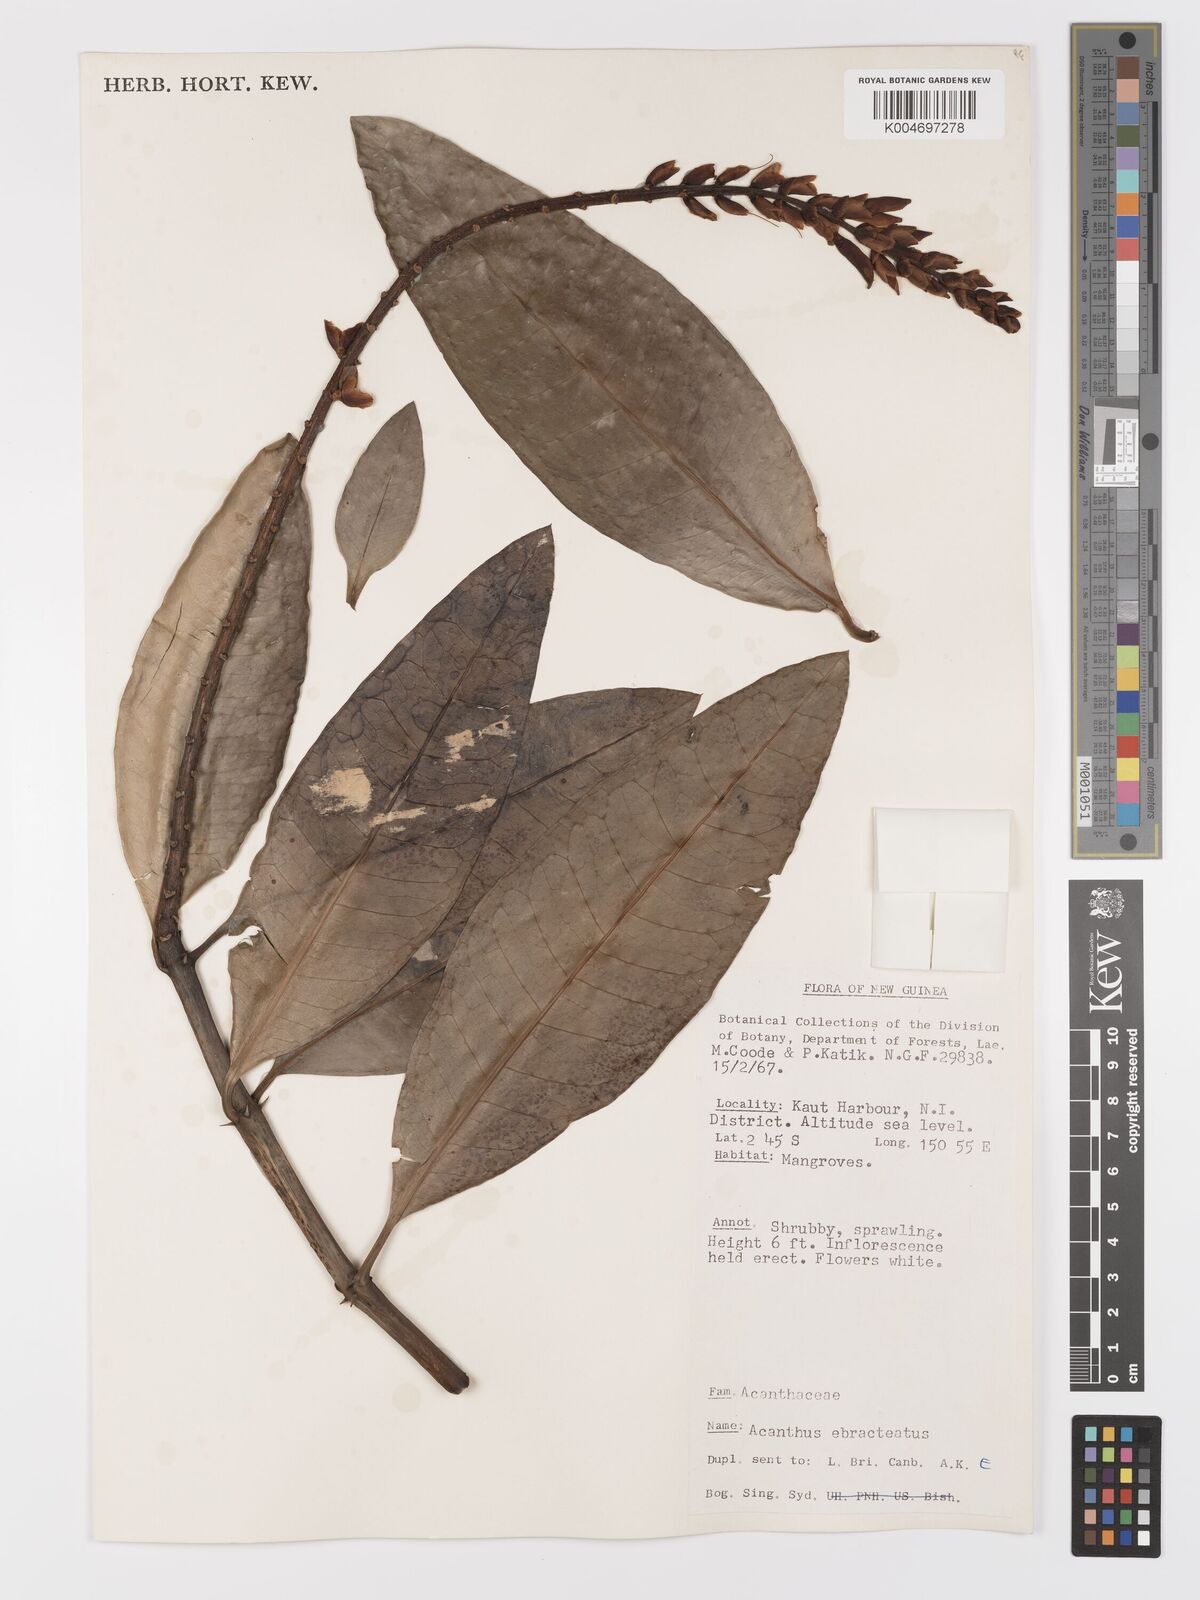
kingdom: Plantae
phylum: Tracheophyta
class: Magnoliopsida
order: Lamiales
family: Acanthaceae
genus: Acanthus
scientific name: Acanthus ebracteatus
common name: Acanthus
